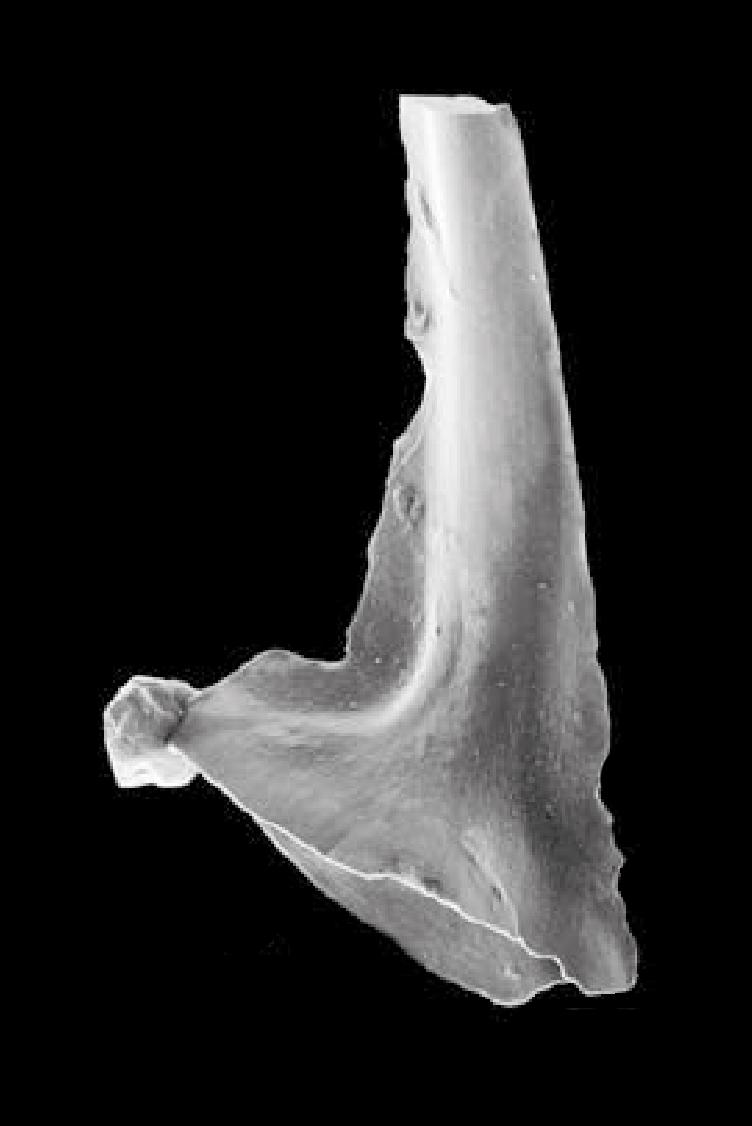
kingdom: Animalia
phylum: Chordata
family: Acodontidae
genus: Tripodus
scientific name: Tripodus
